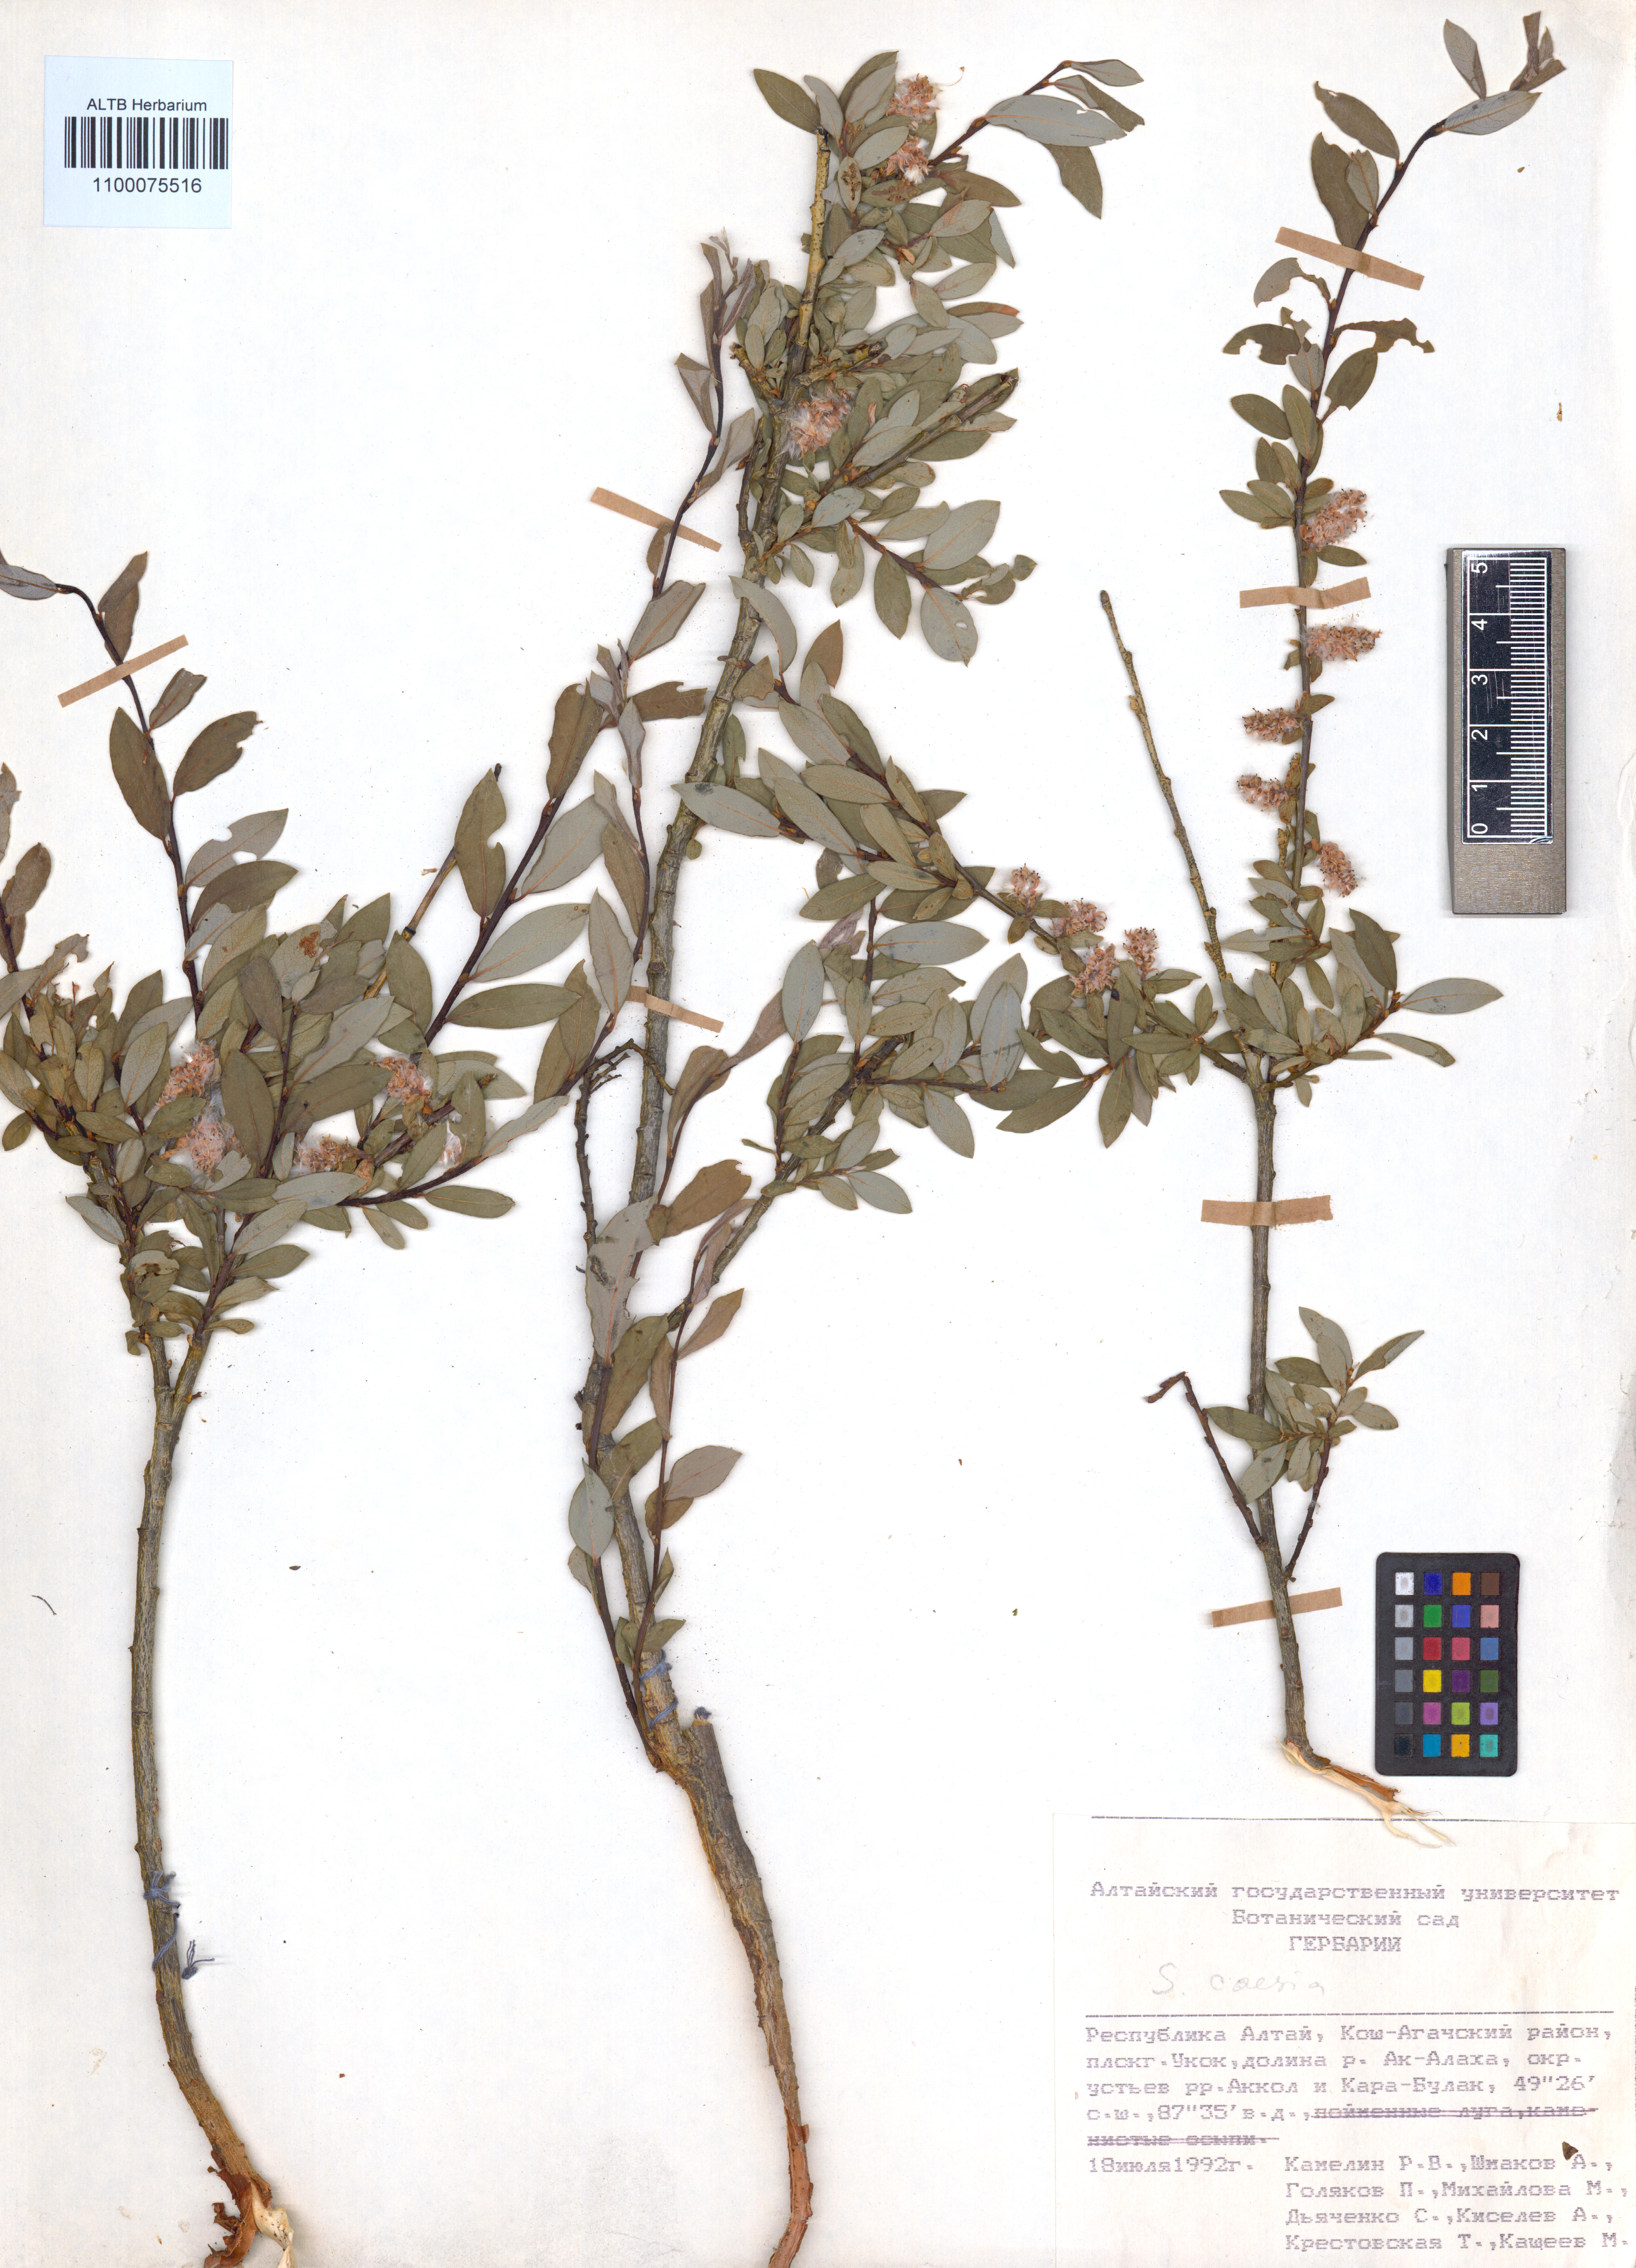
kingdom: Plantae
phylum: Tracheophyta
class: Magnoliopsida
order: Malpighiales
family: Salicaceae
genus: Salix
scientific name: Salix caesia
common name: Blue willow
